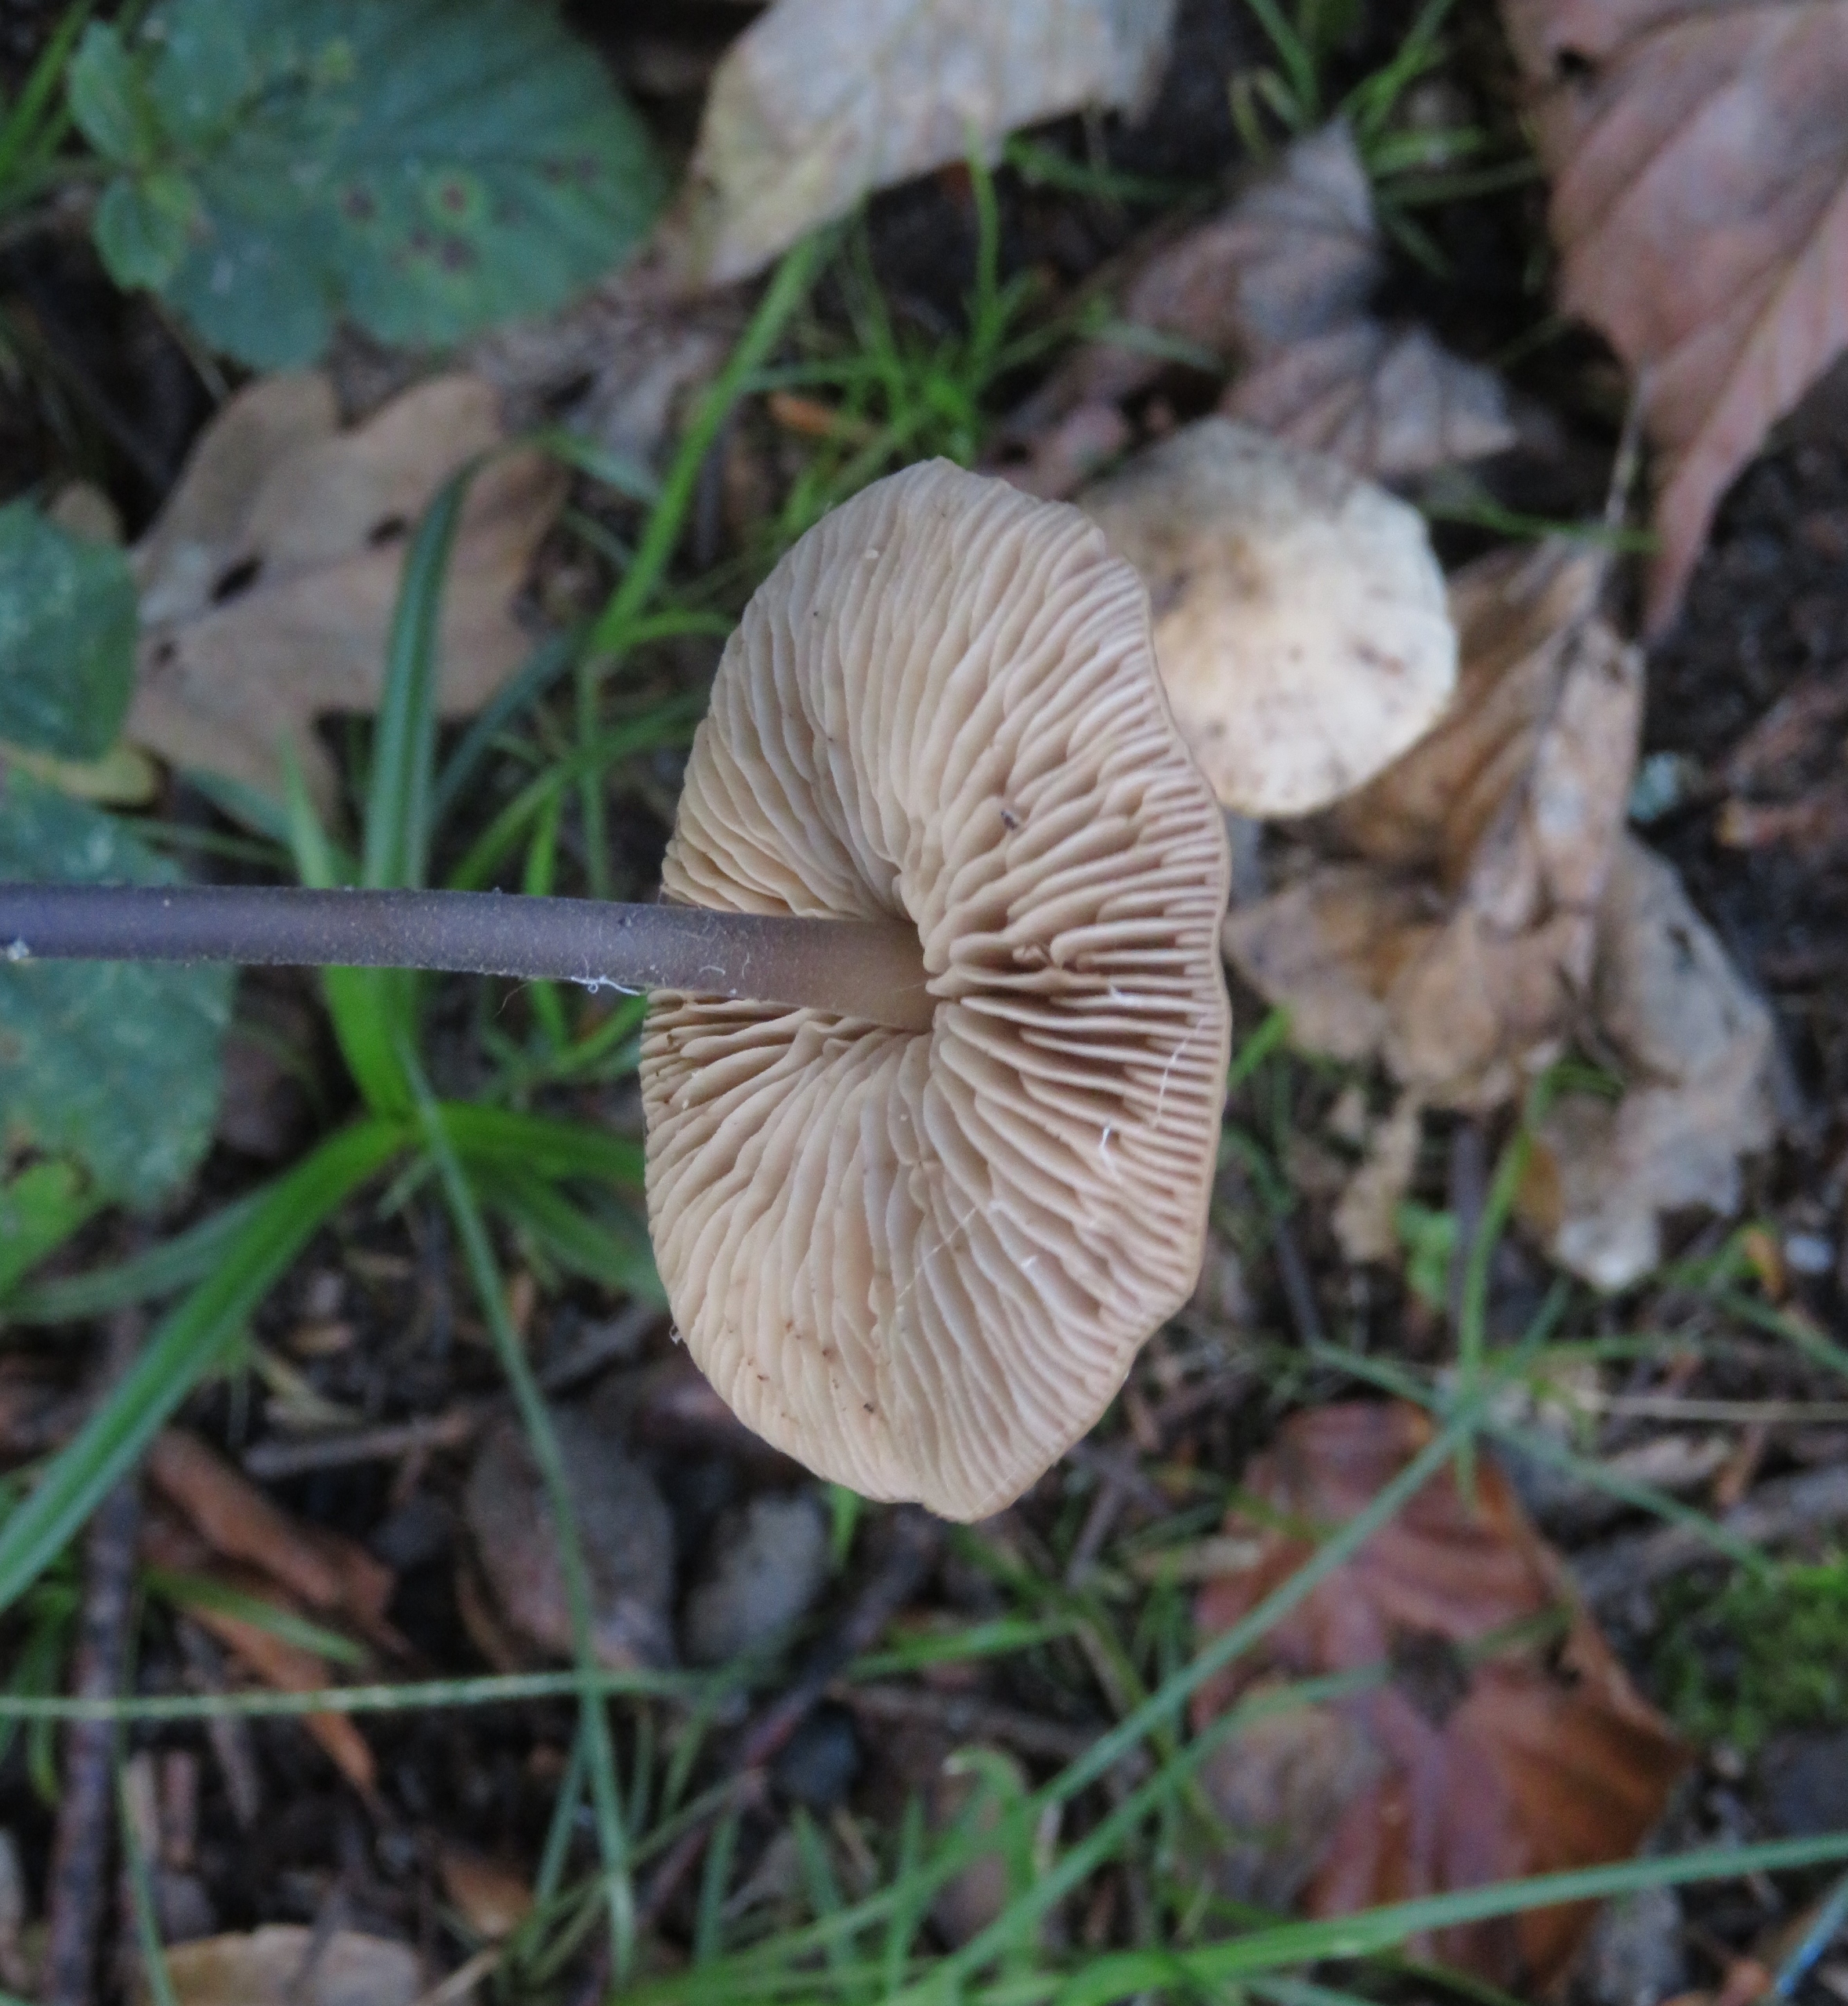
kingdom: Fungi
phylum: Basidiomycota
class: Agaricomycetes
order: Agaricales
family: Omphalotaceae
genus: Mycetinis
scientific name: Mycetinis alliaceus
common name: Stor løghat
